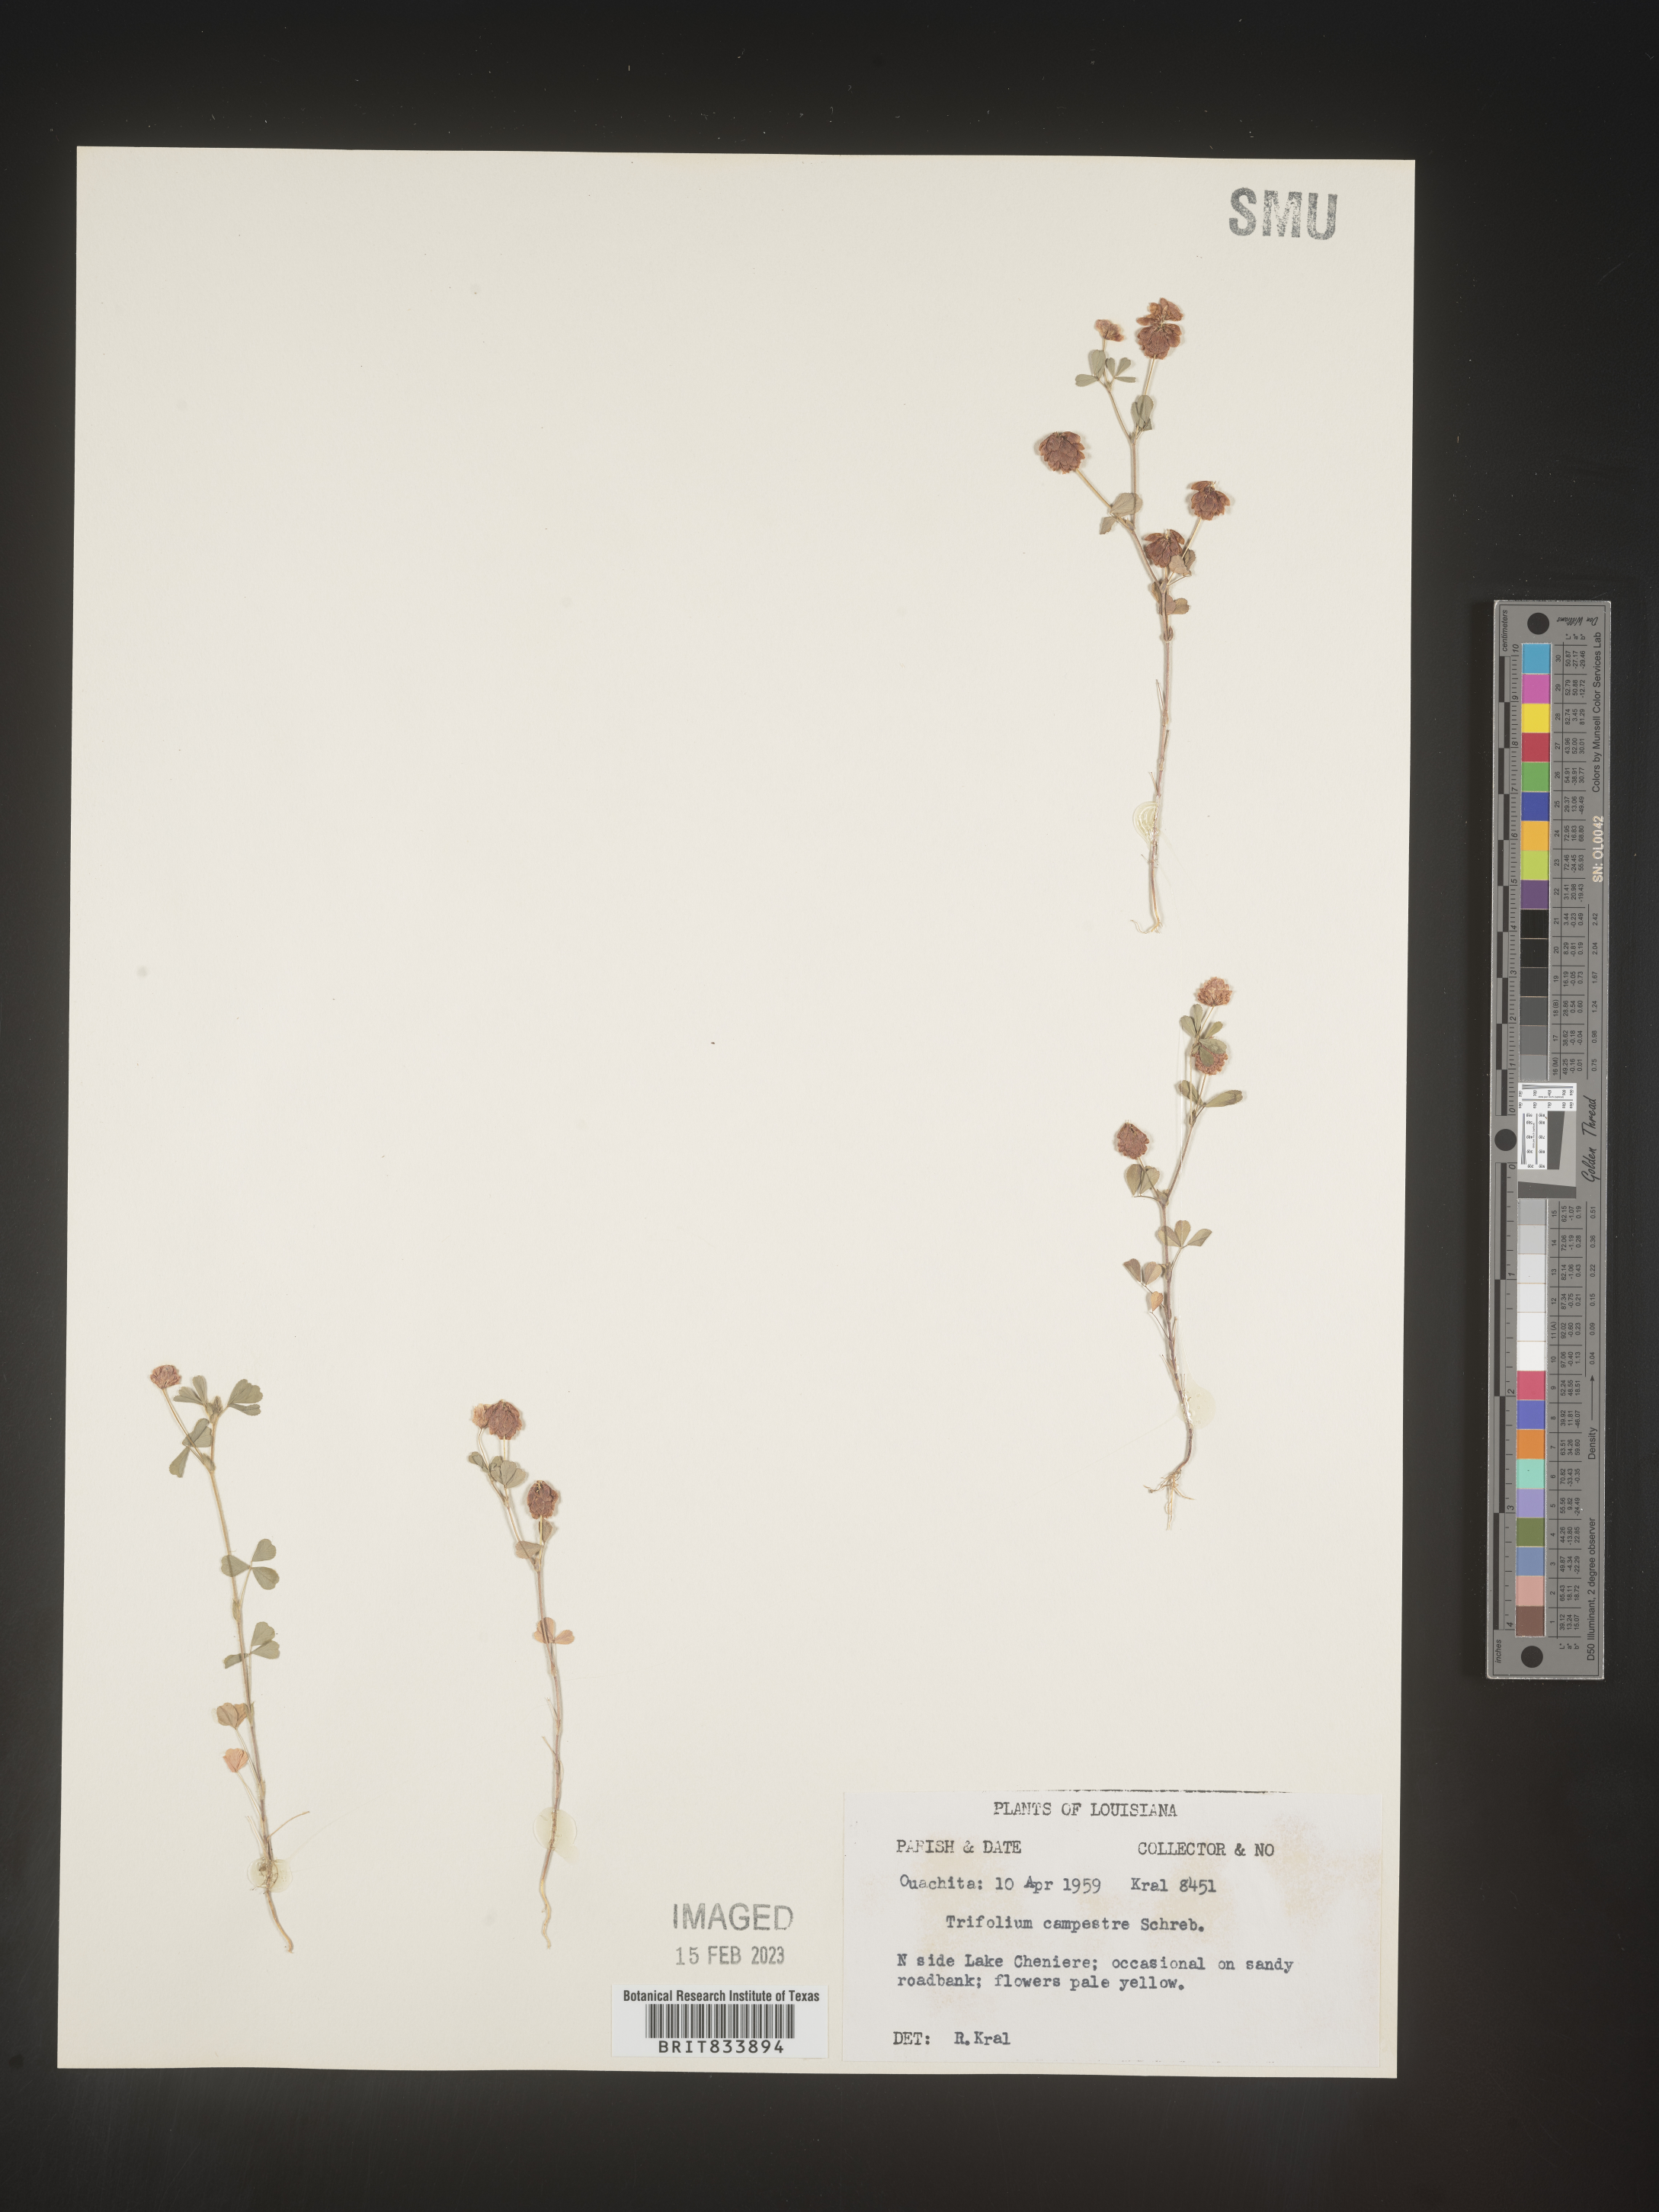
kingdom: Plantae
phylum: Tracheophyta
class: Magnoliopsida
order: Fabales
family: Fabaceae
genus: Trifolium
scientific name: Trifolium campestre
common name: Field clover
